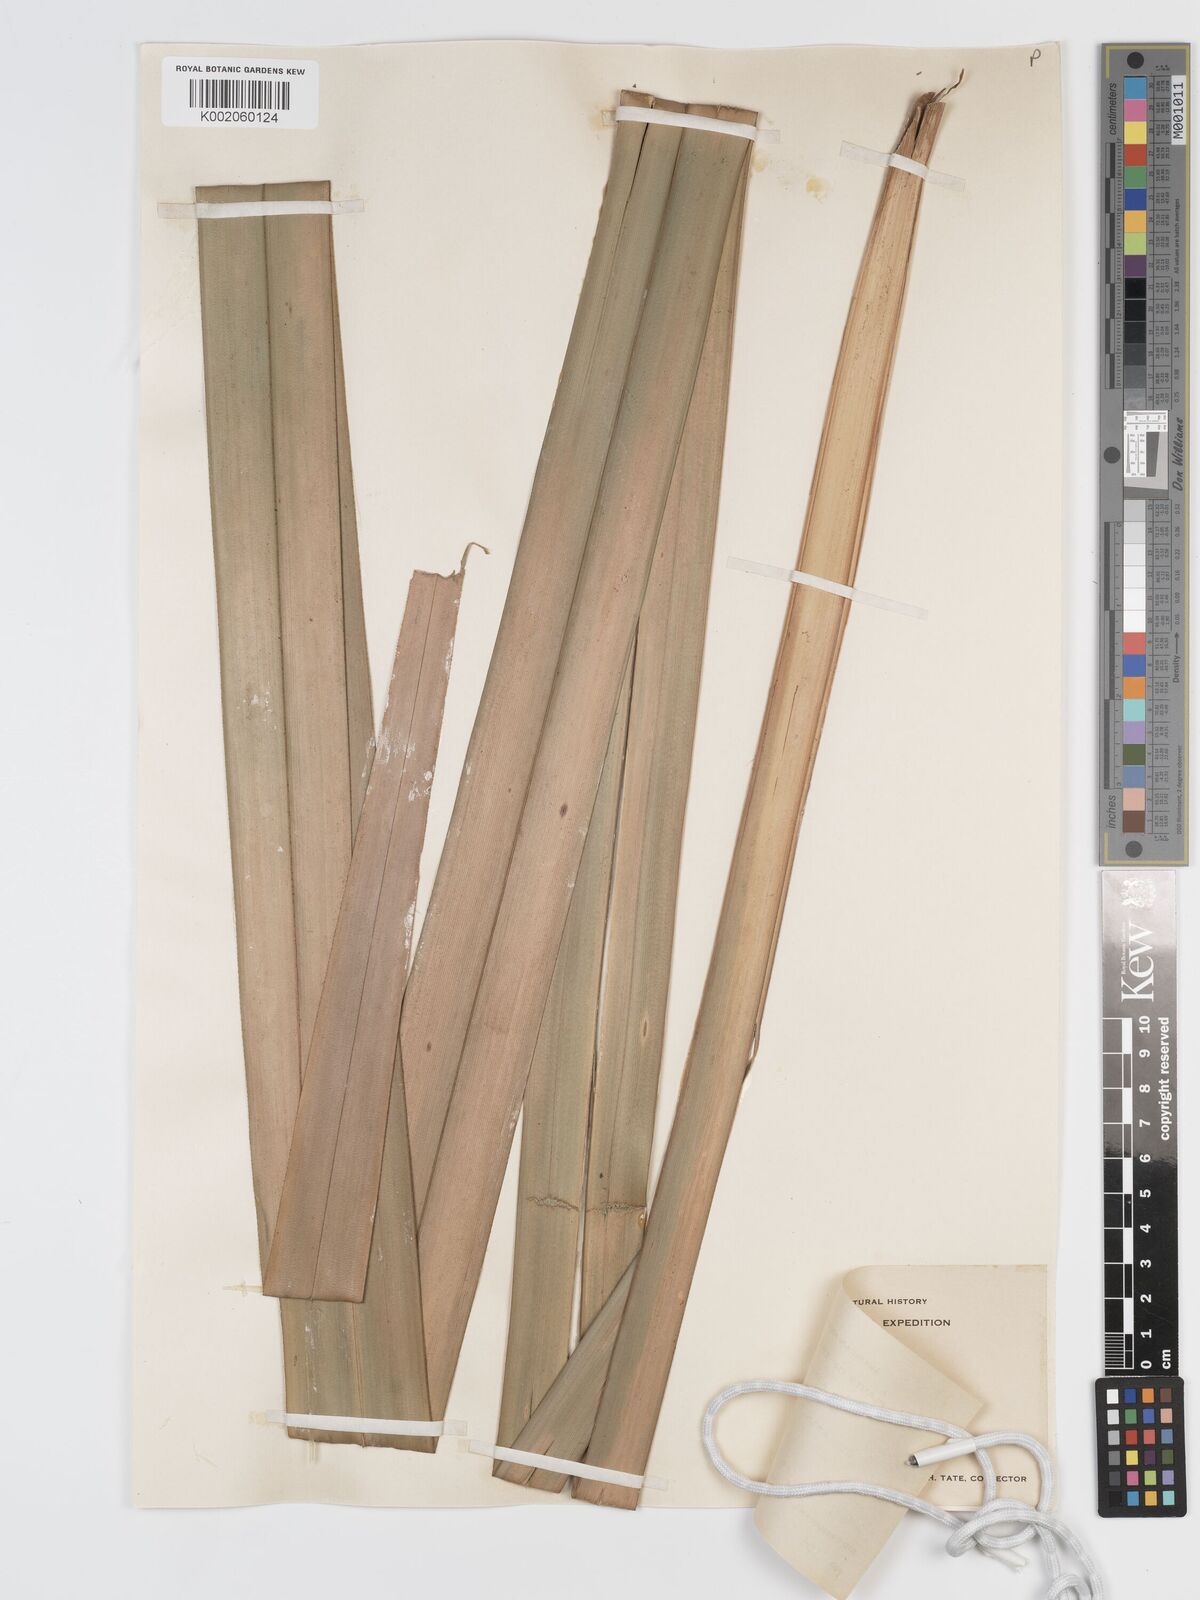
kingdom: Plantae
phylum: Tracheophyta
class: Liliopsida
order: Poales
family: Cyperaceae
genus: Diplasia
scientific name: Diplasia karatifolia
